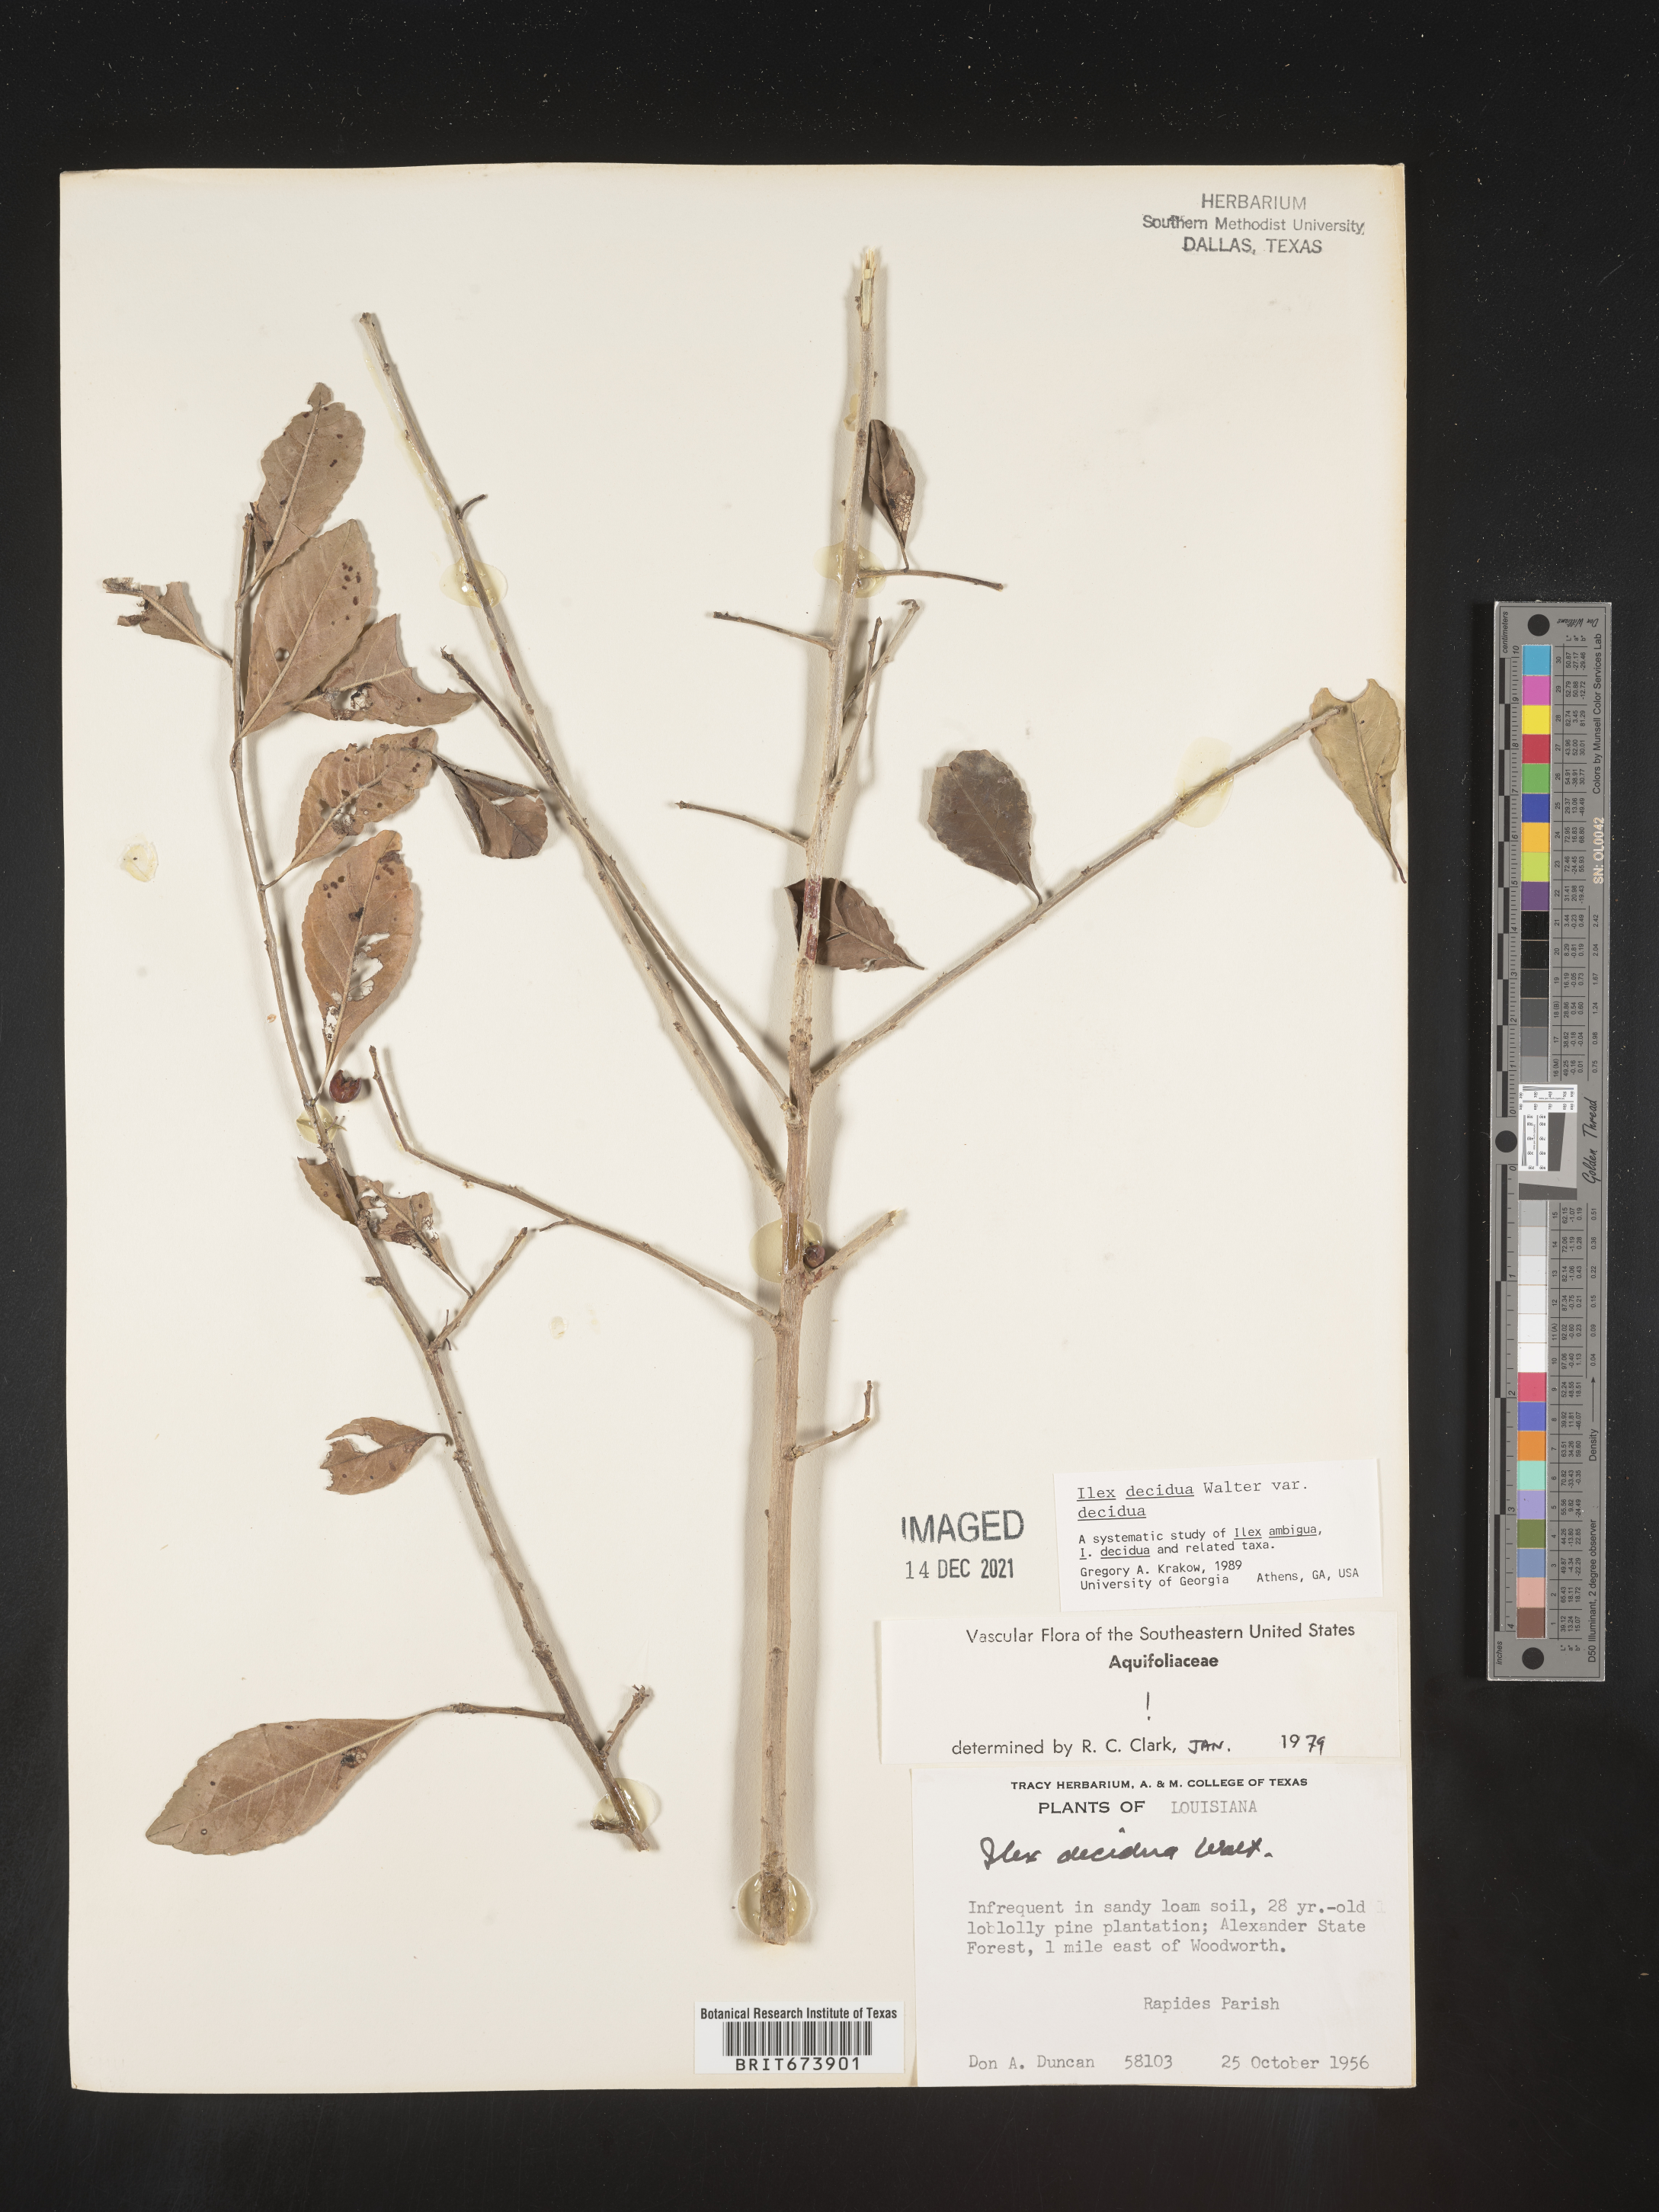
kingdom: Plantae
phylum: Tracheophyta
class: Magnoliopsida
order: Aquifoliales
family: Aquifoliaceae
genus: Ilex
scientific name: Ilex decidua
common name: Possum-haw
